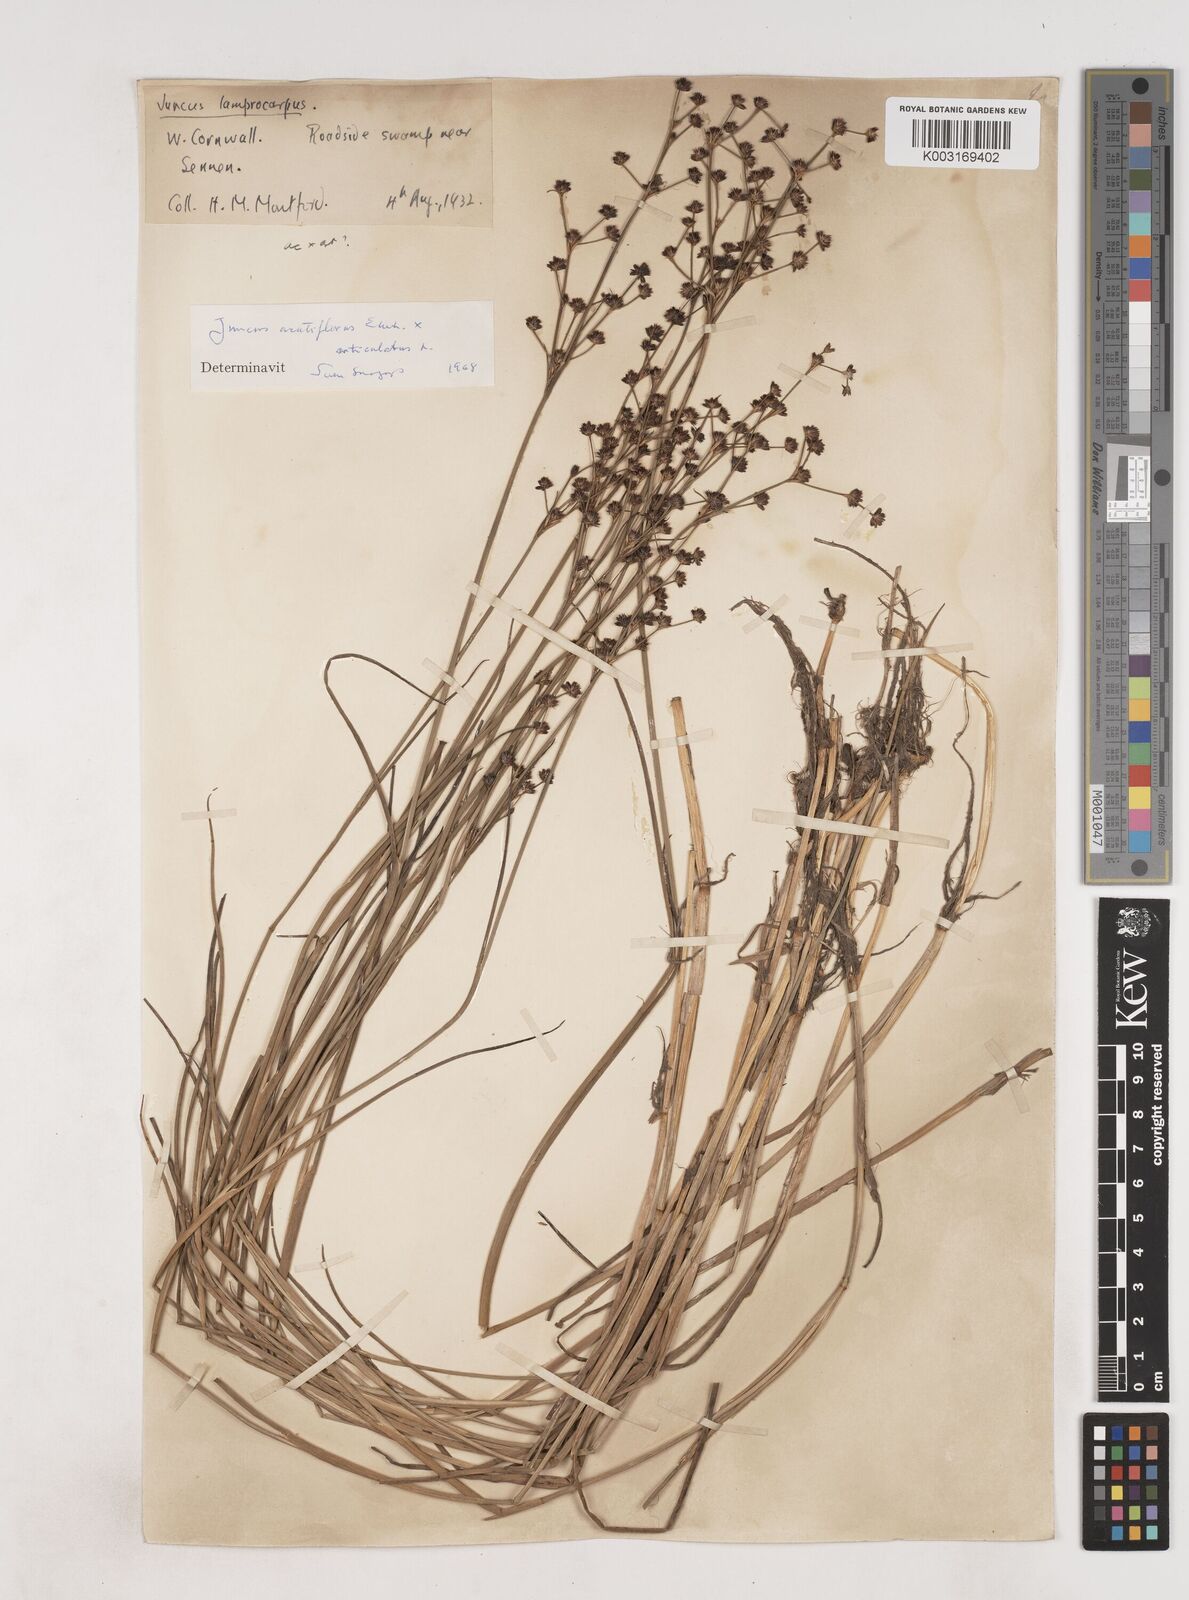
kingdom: Plantae
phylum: Tracheophyta
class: Liliopsida
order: Poales
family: Juncaceae
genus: Juncus
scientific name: Juncus acutiflorus
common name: Sharp-flowered rush
